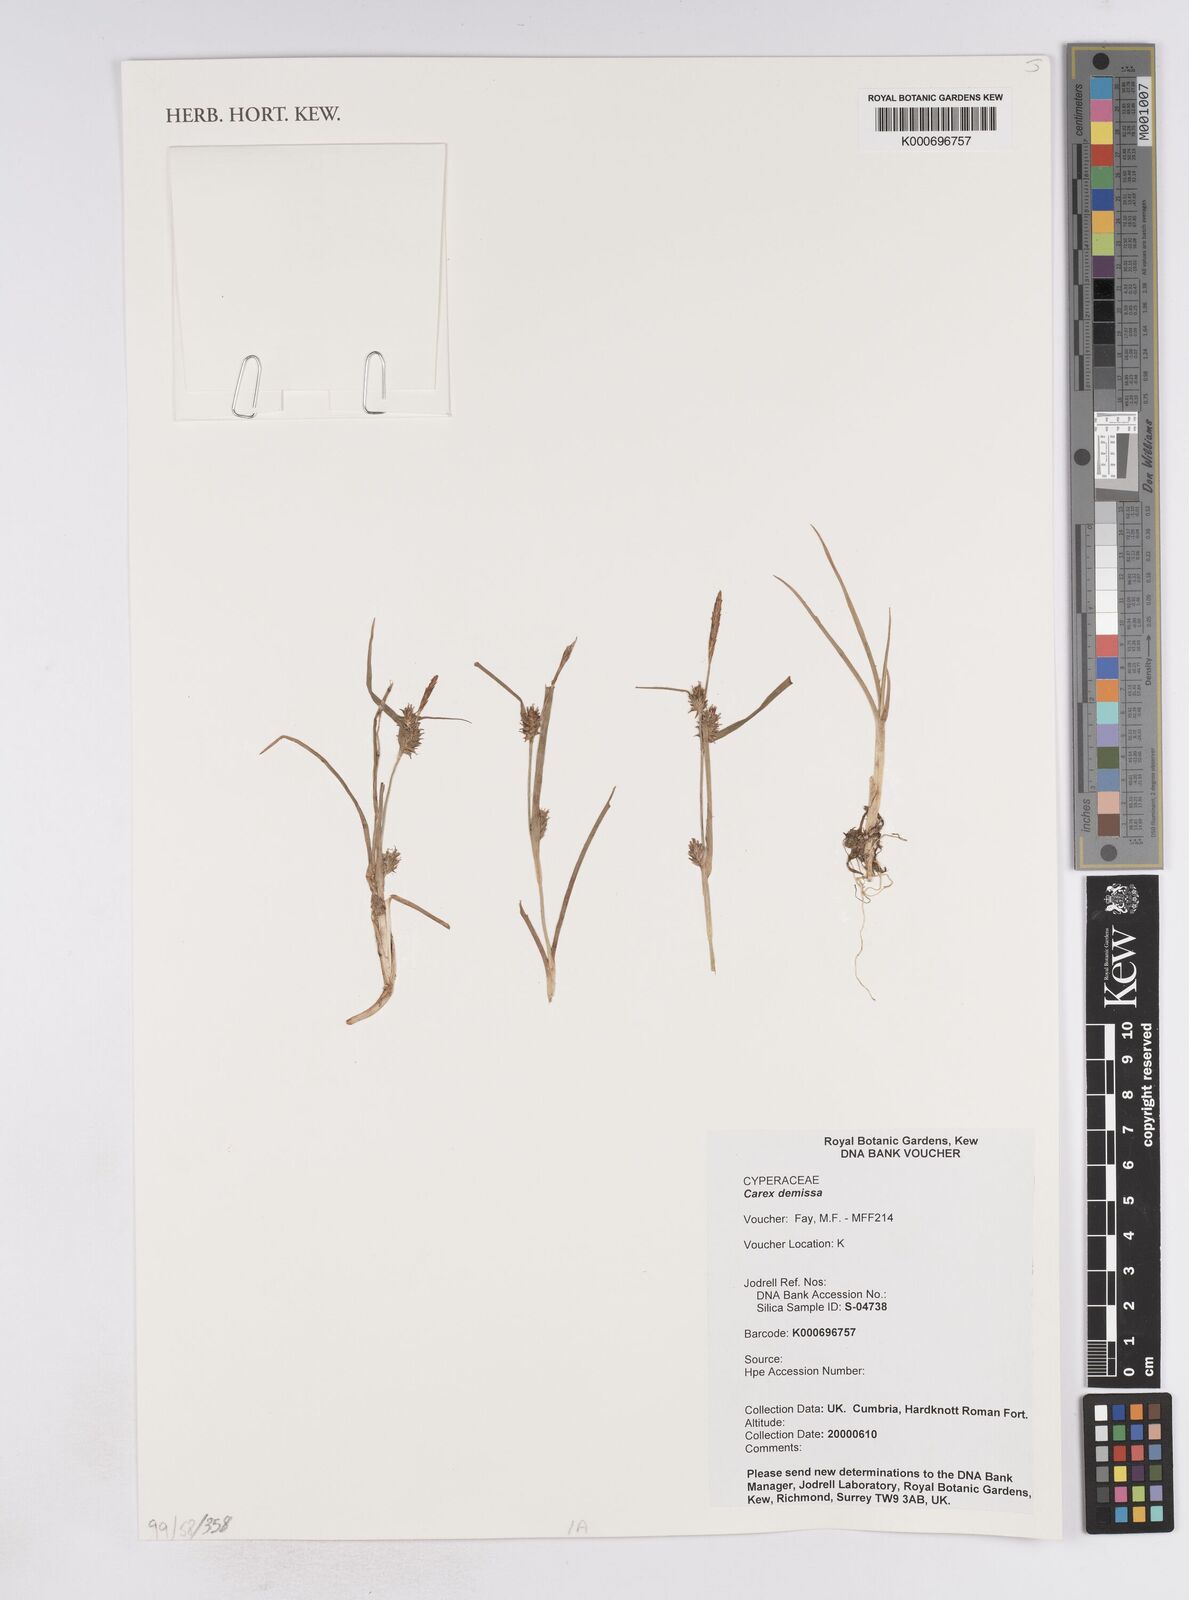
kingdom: Plantae
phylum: Tracheophyta
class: Liliopsida
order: Poales
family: Cyperaceae
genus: Carex
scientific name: Carex demissa
